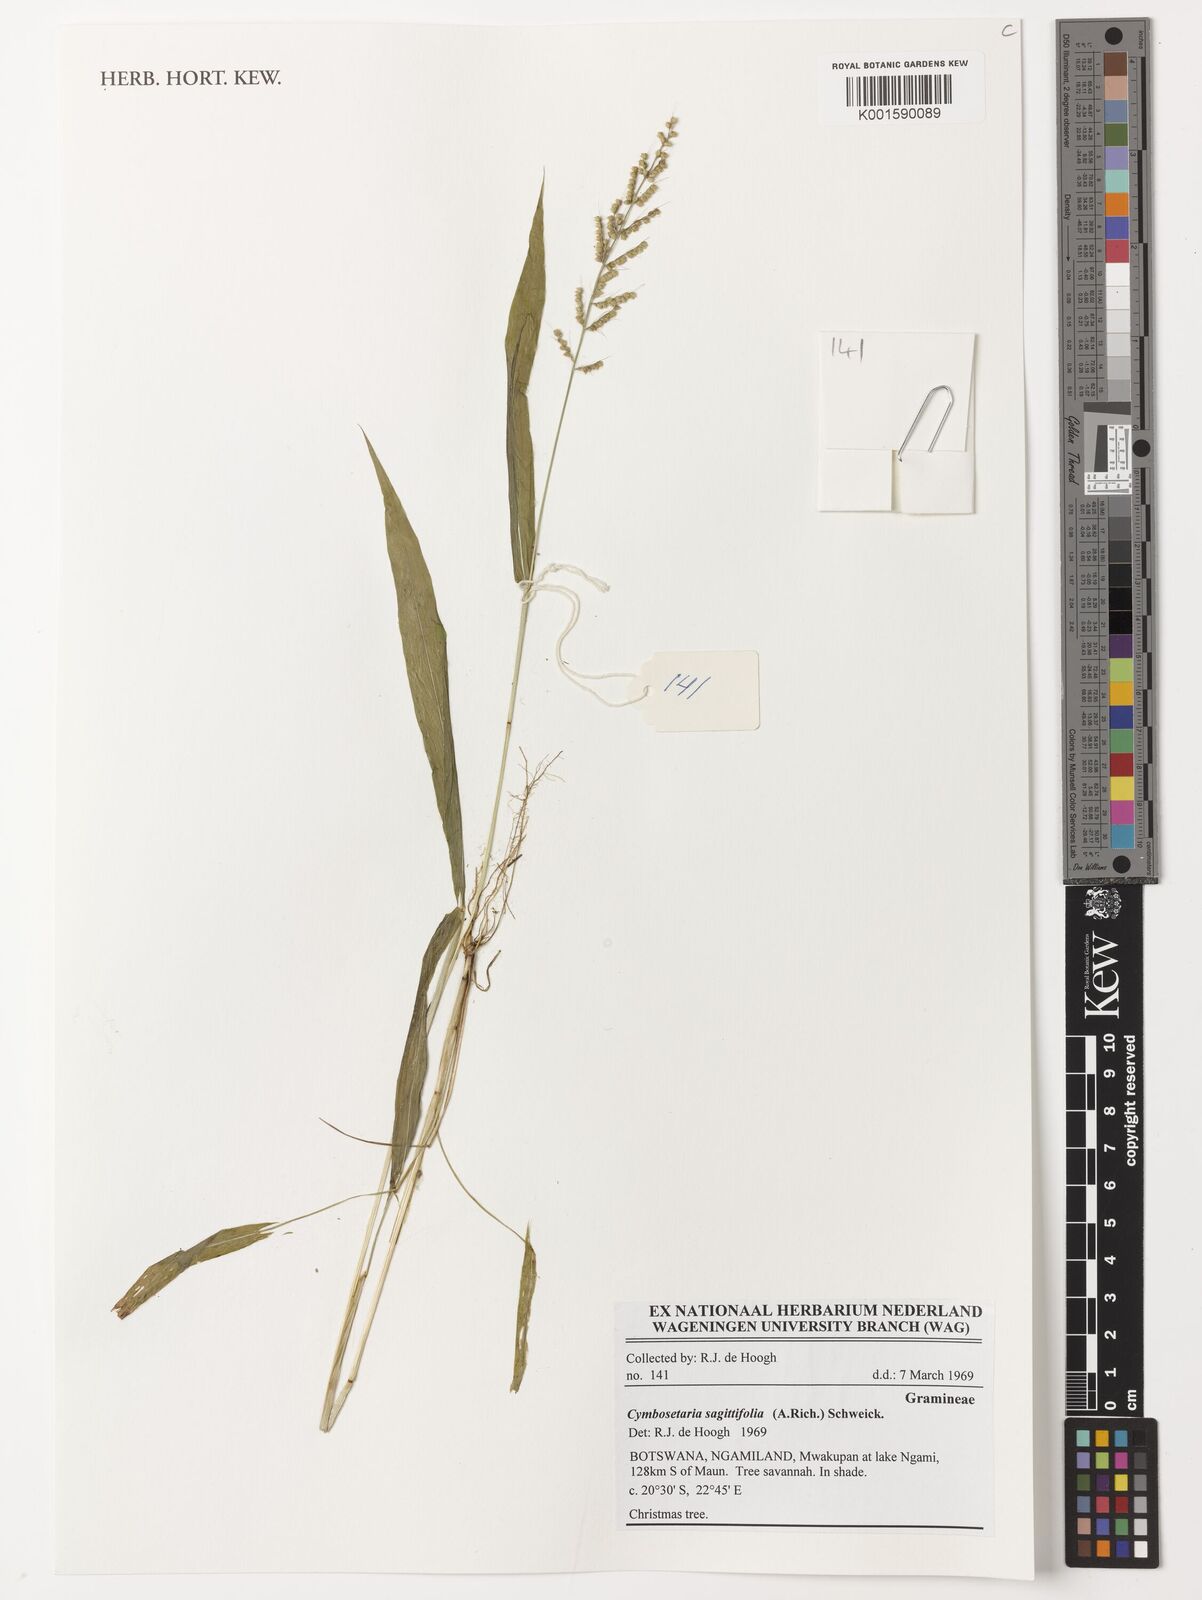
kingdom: Plantae
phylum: Tracheophyta
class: Liliopsida
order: Poales
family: Poaceae
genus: Setaria
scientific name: Setaria sagittifolia
